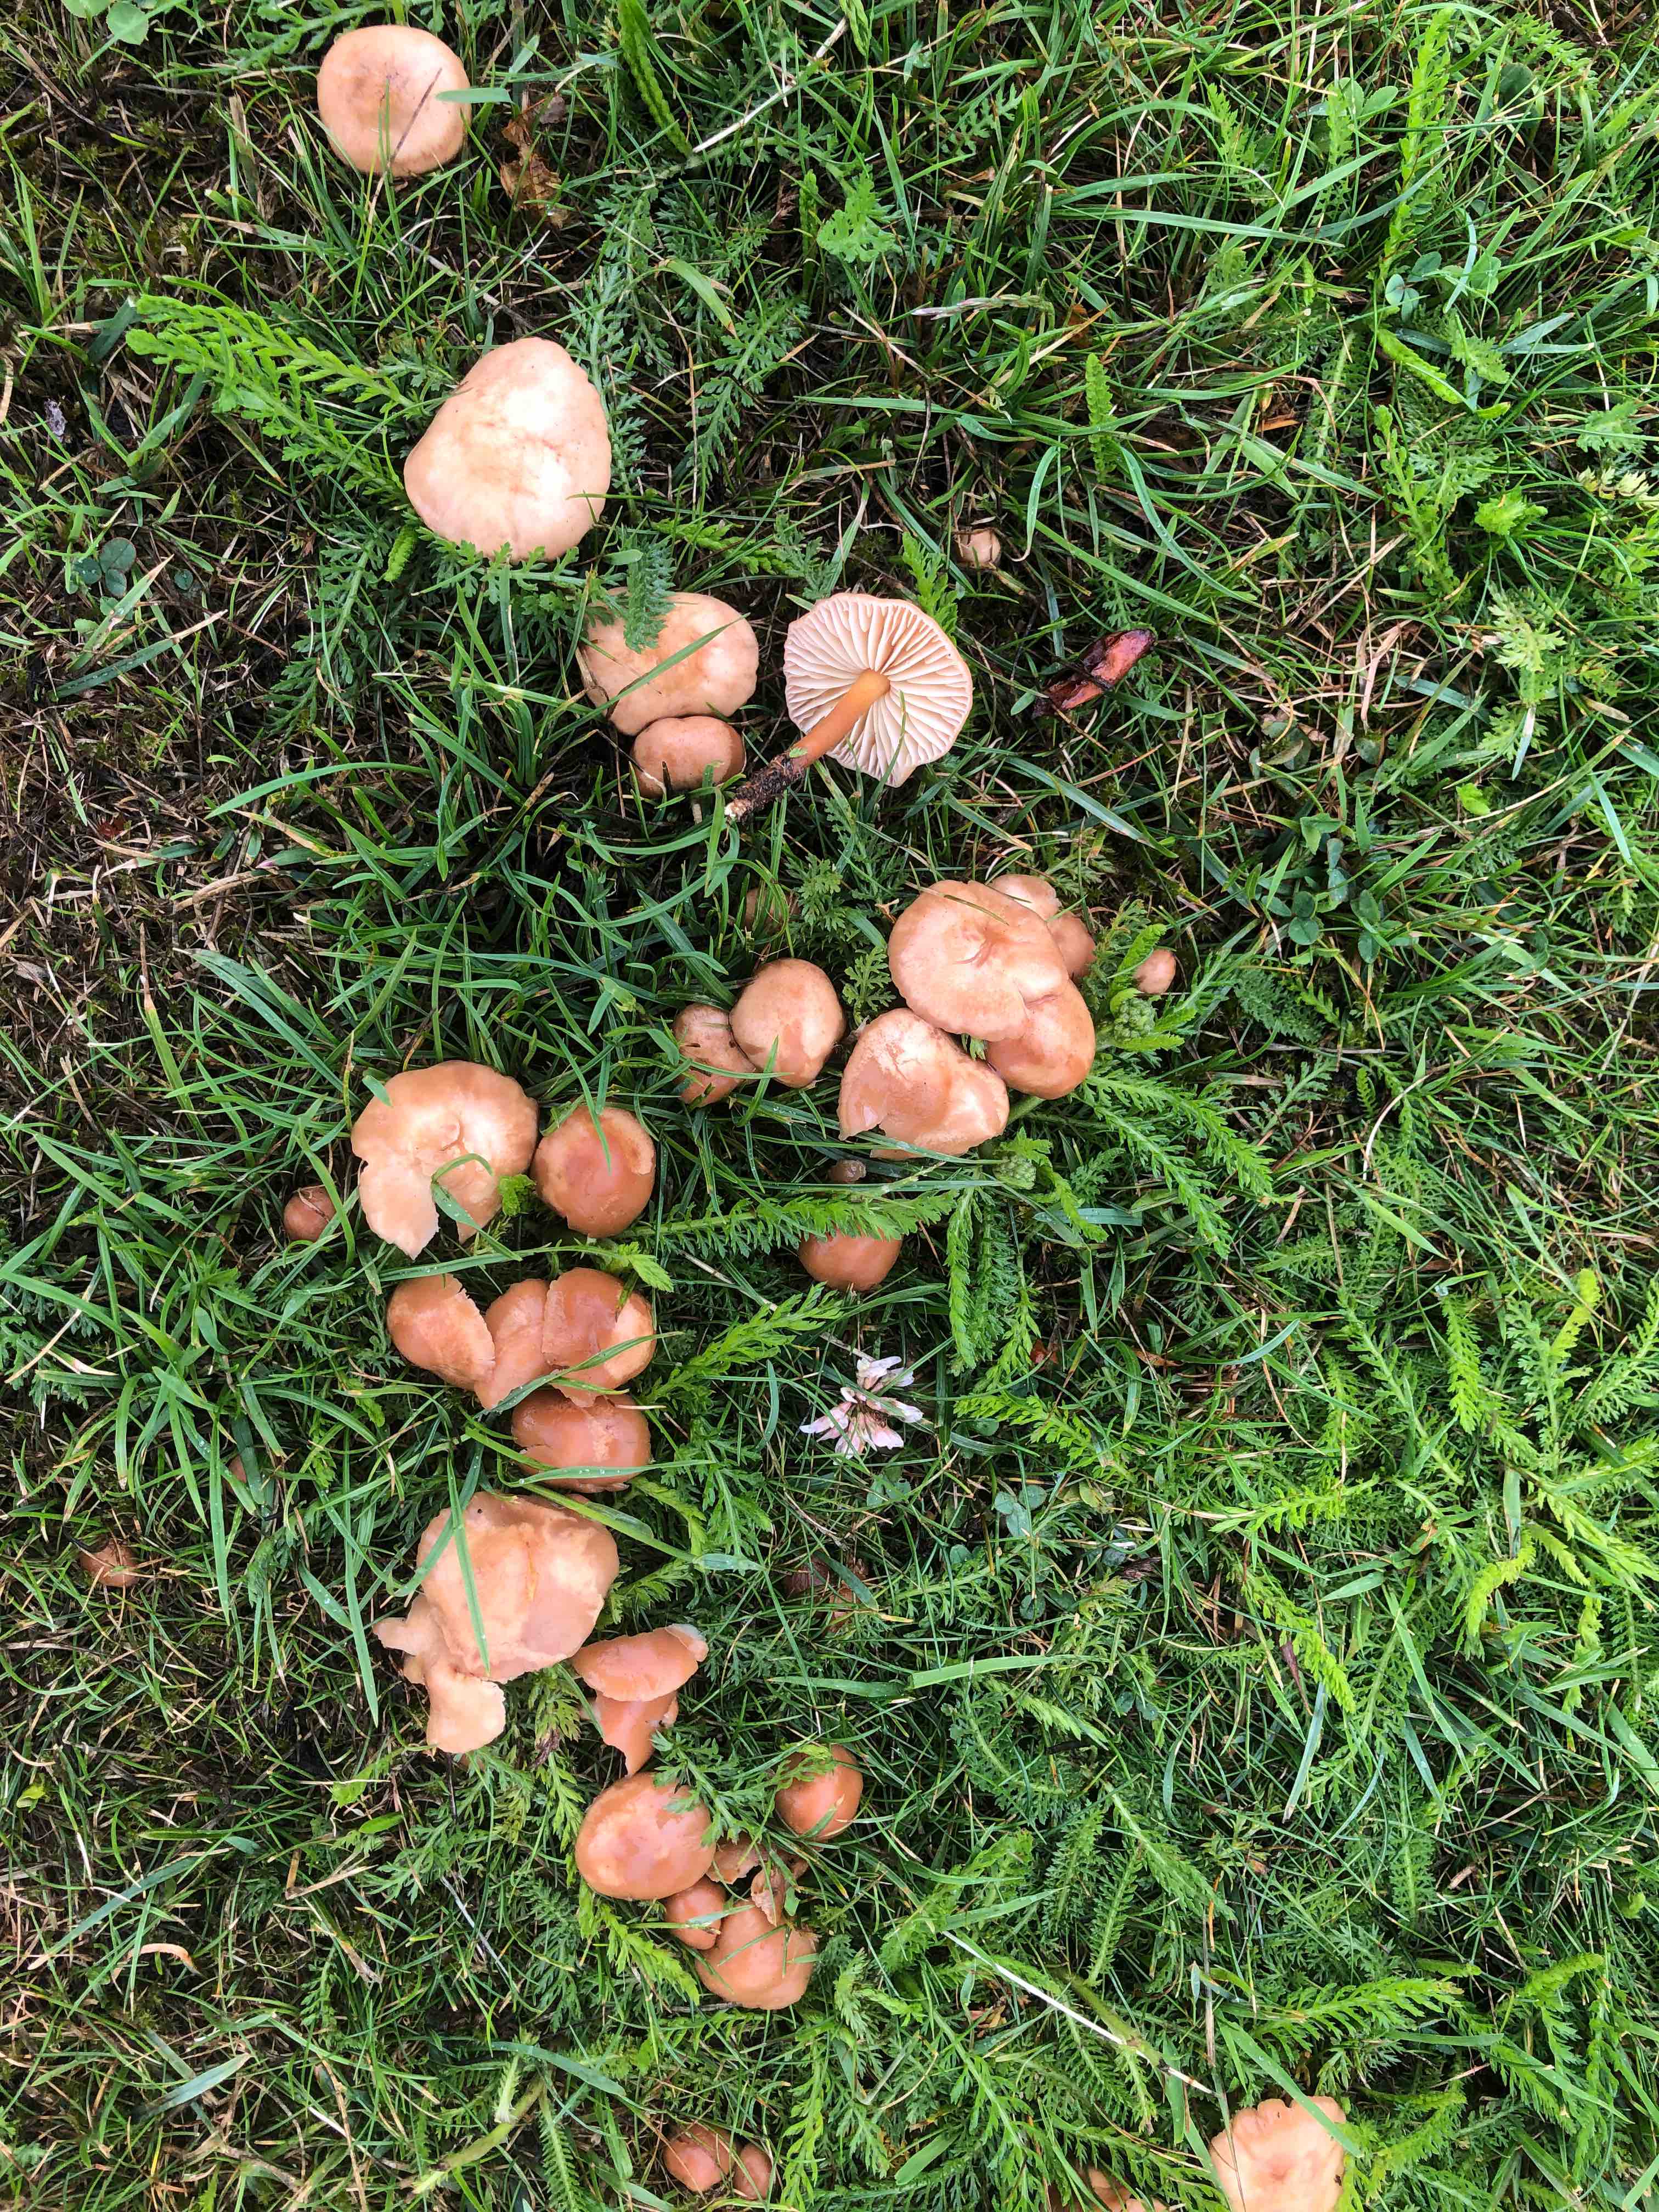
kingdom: Fungi
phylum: Basidiomycota
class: Agaricomycetes
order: Agaricales
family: Marasmiaceae
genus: Marasmius
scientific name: Marasmius oreades
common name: elledans-bruskhat
